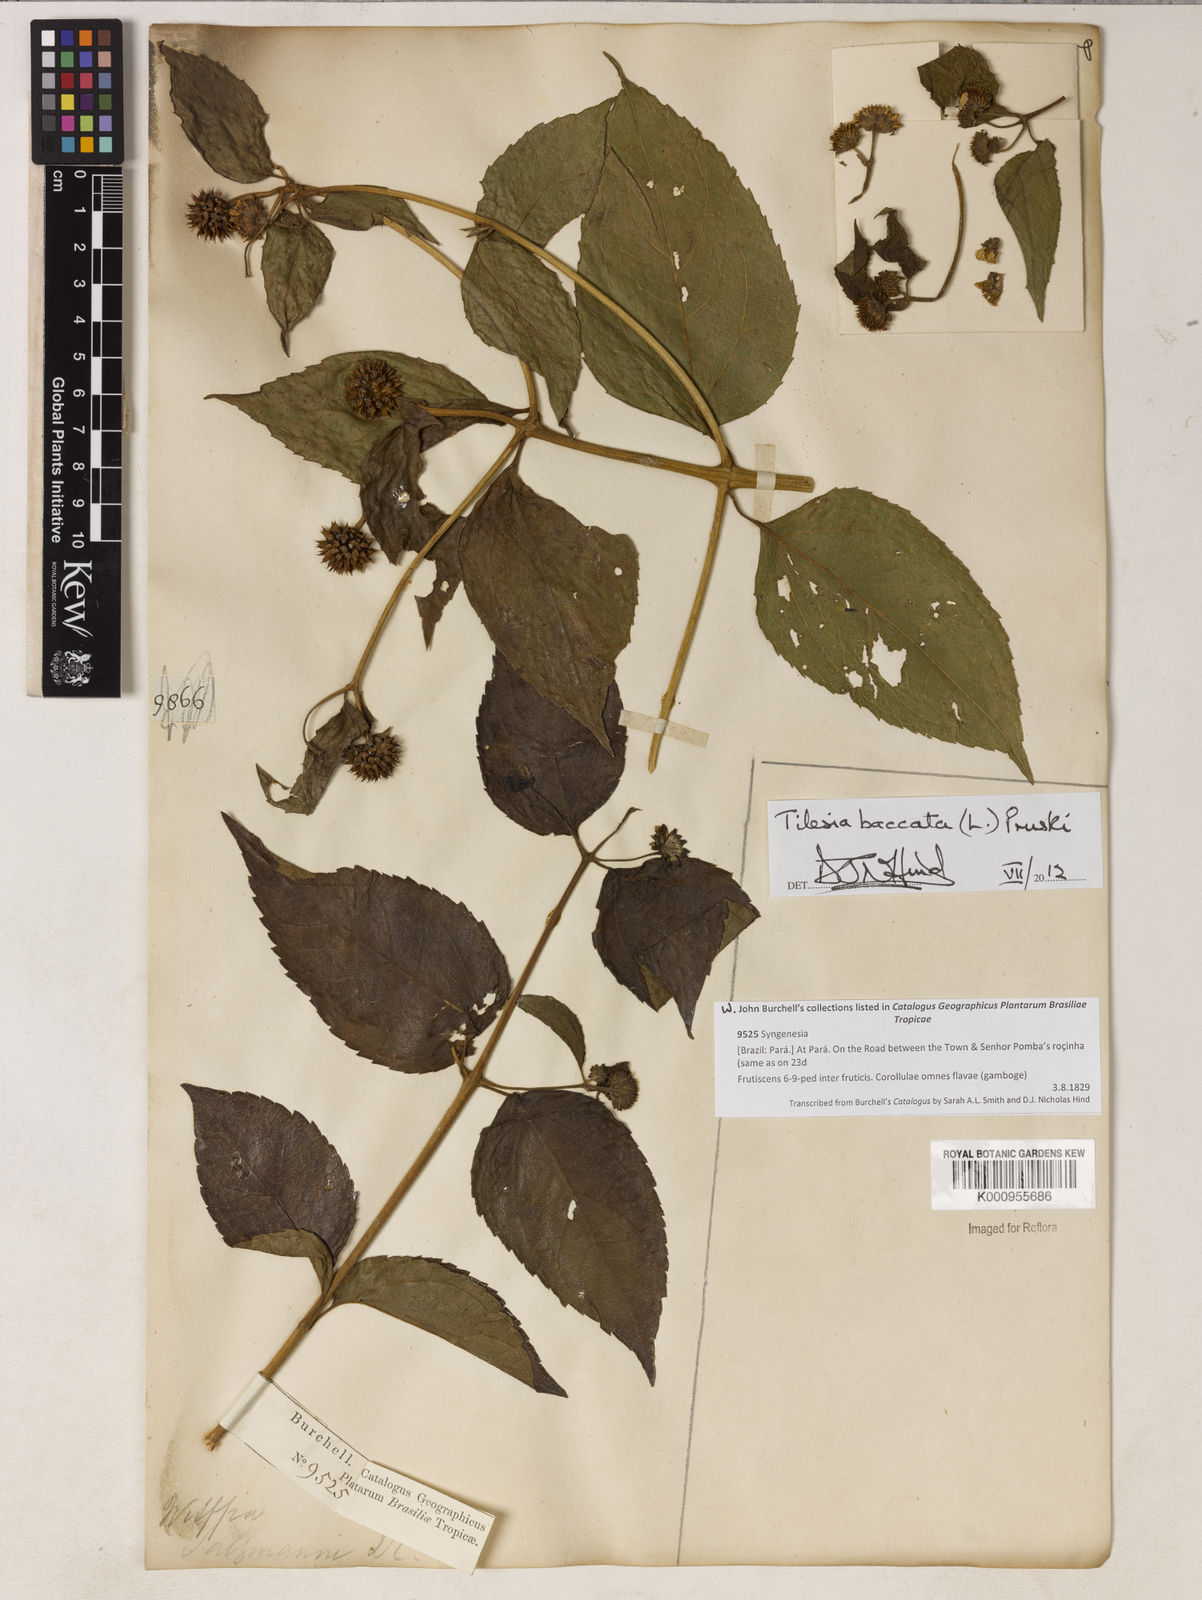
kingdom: Plantae
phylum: Tracheophyta
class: Magnoliopsida
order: Asterales
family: Asteraceae
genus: Tilesia
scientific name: Tilesia baccata
